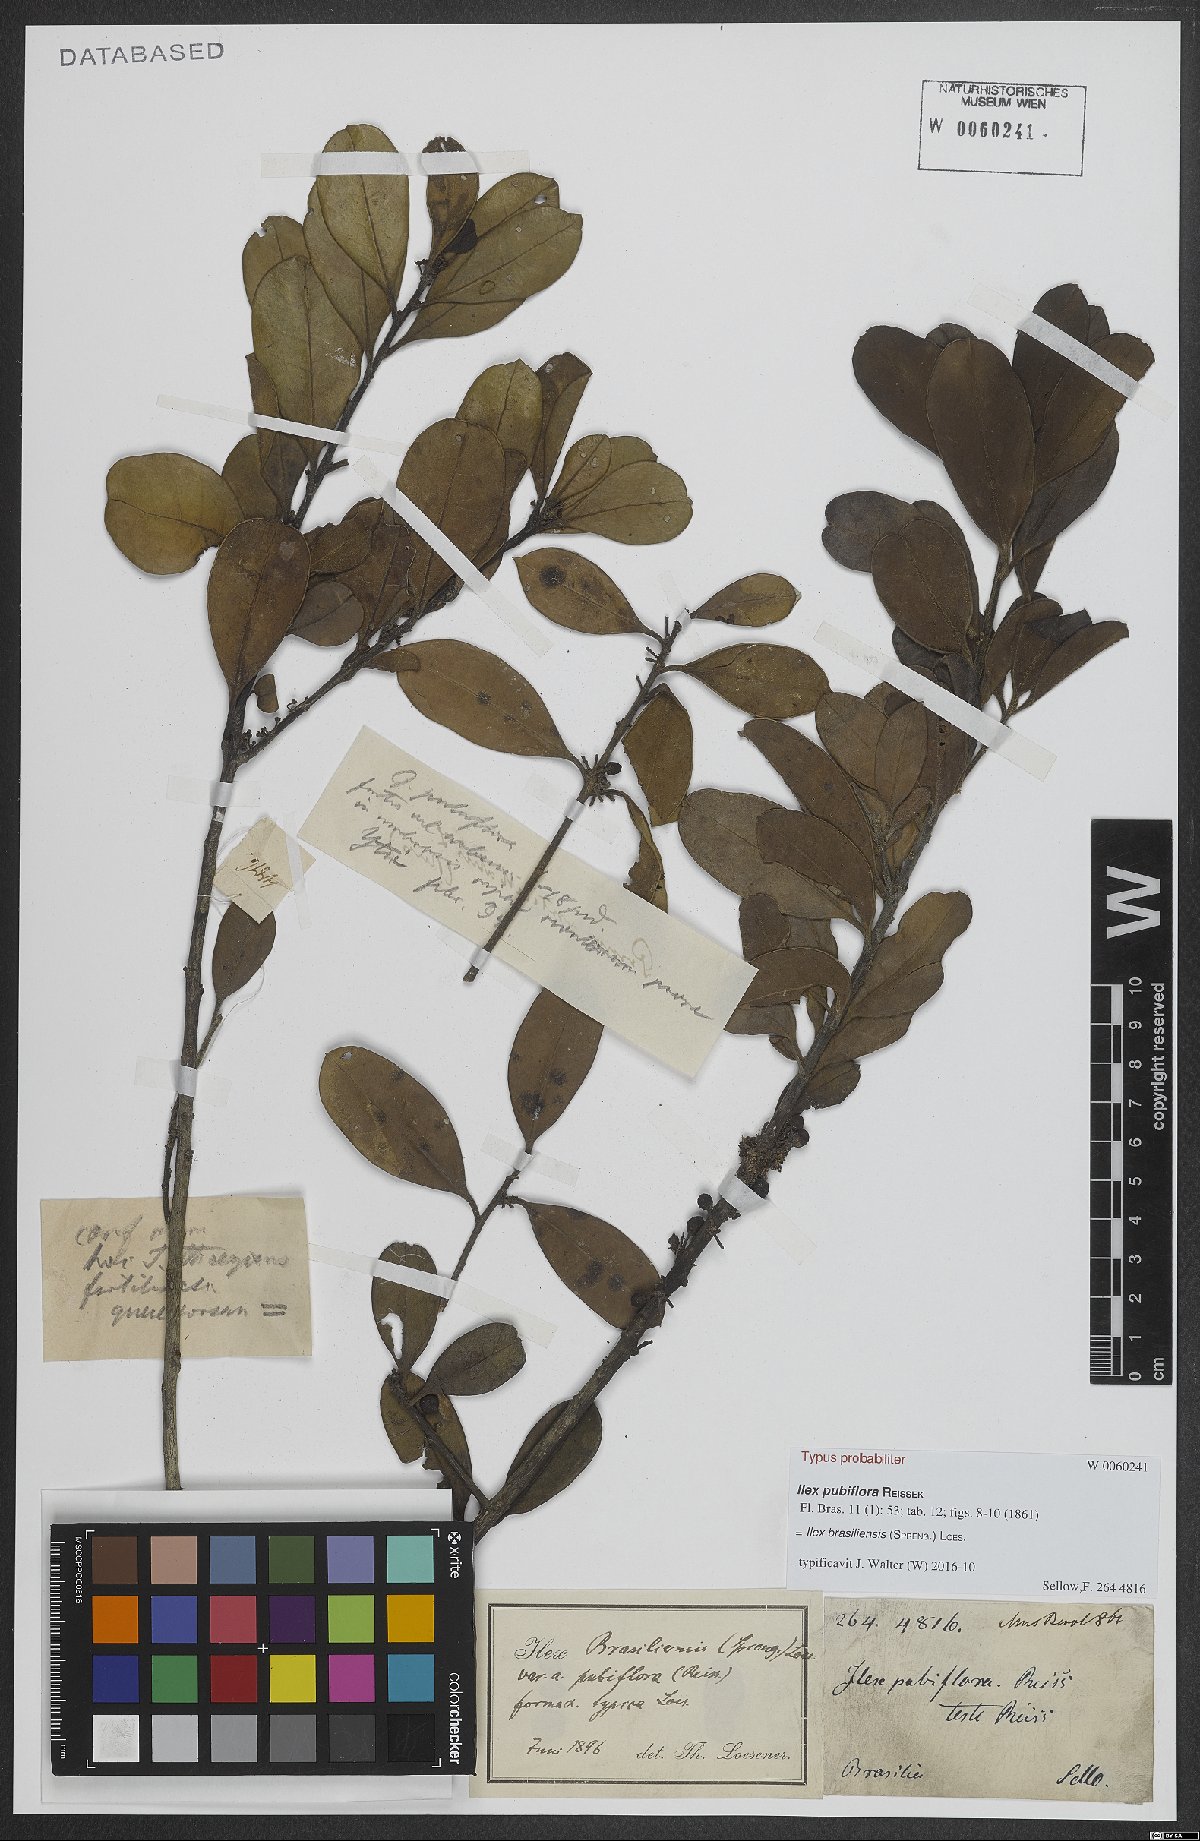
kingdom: Plantae
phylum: Tracheophyta
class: Magnoliopsida
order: Aquifoliales
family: Aquifoliaceae
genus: Ilex
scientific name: Ilex brasiliensis
